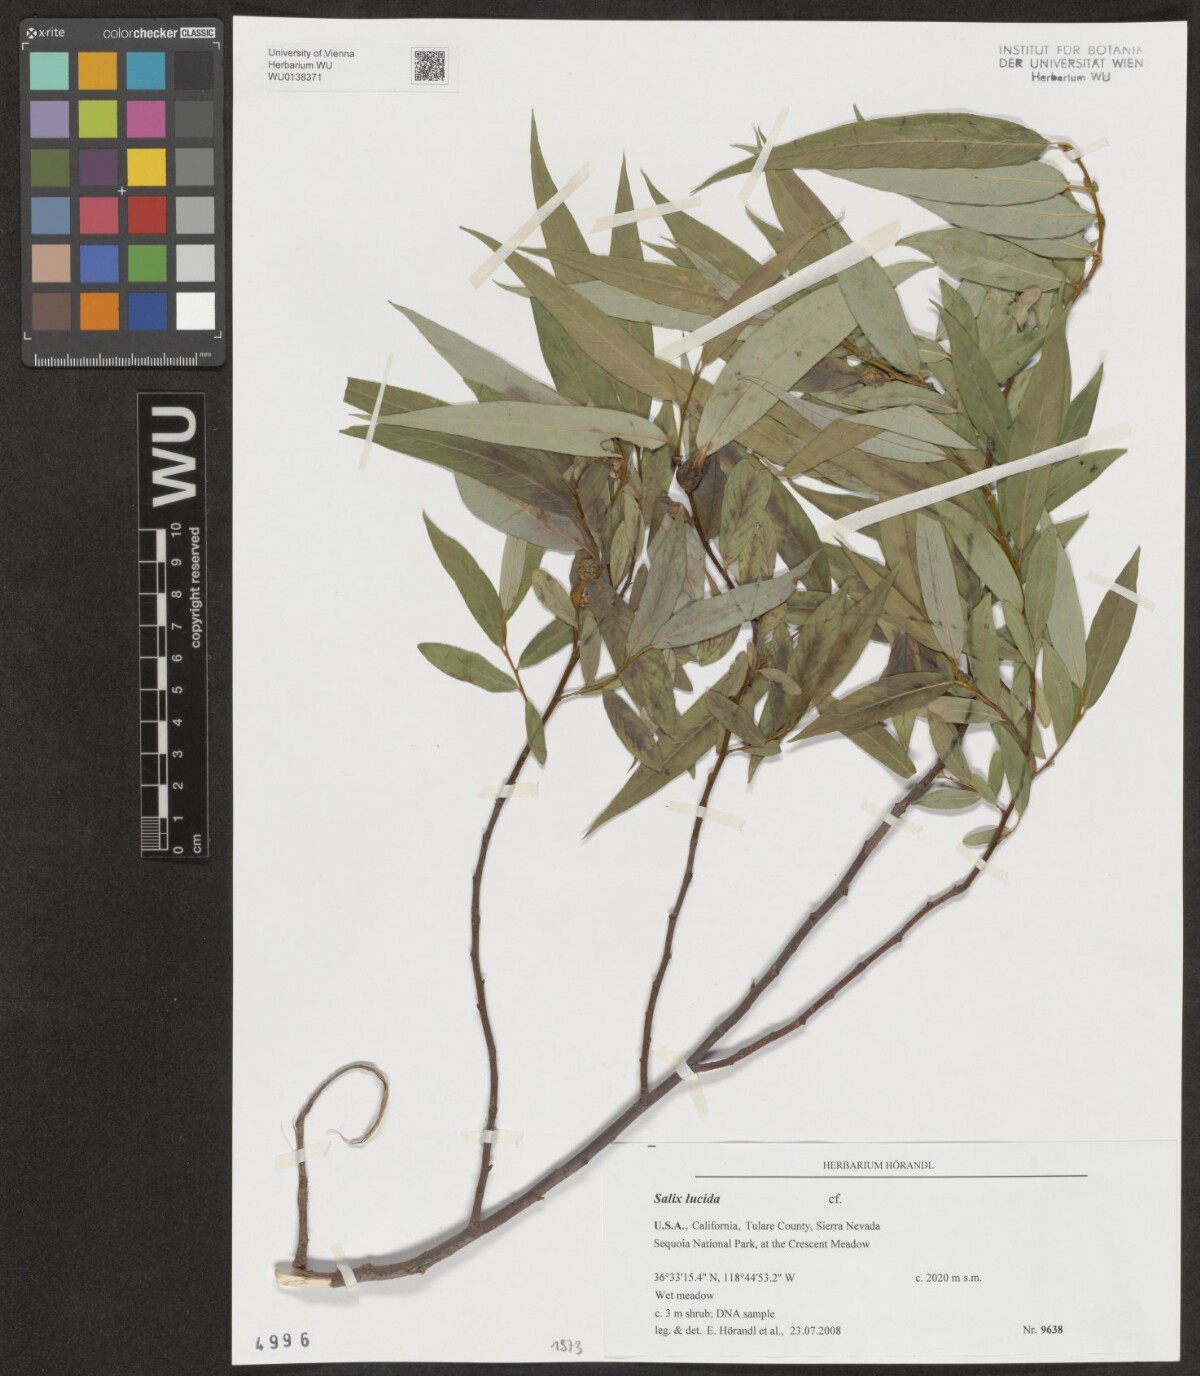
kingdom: Plantae
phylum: Tracheophyta
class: Magnoliopsida
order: Malpighiales
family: Salicaceae
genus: Salix
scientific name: Salix lucida
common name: Shining willow
